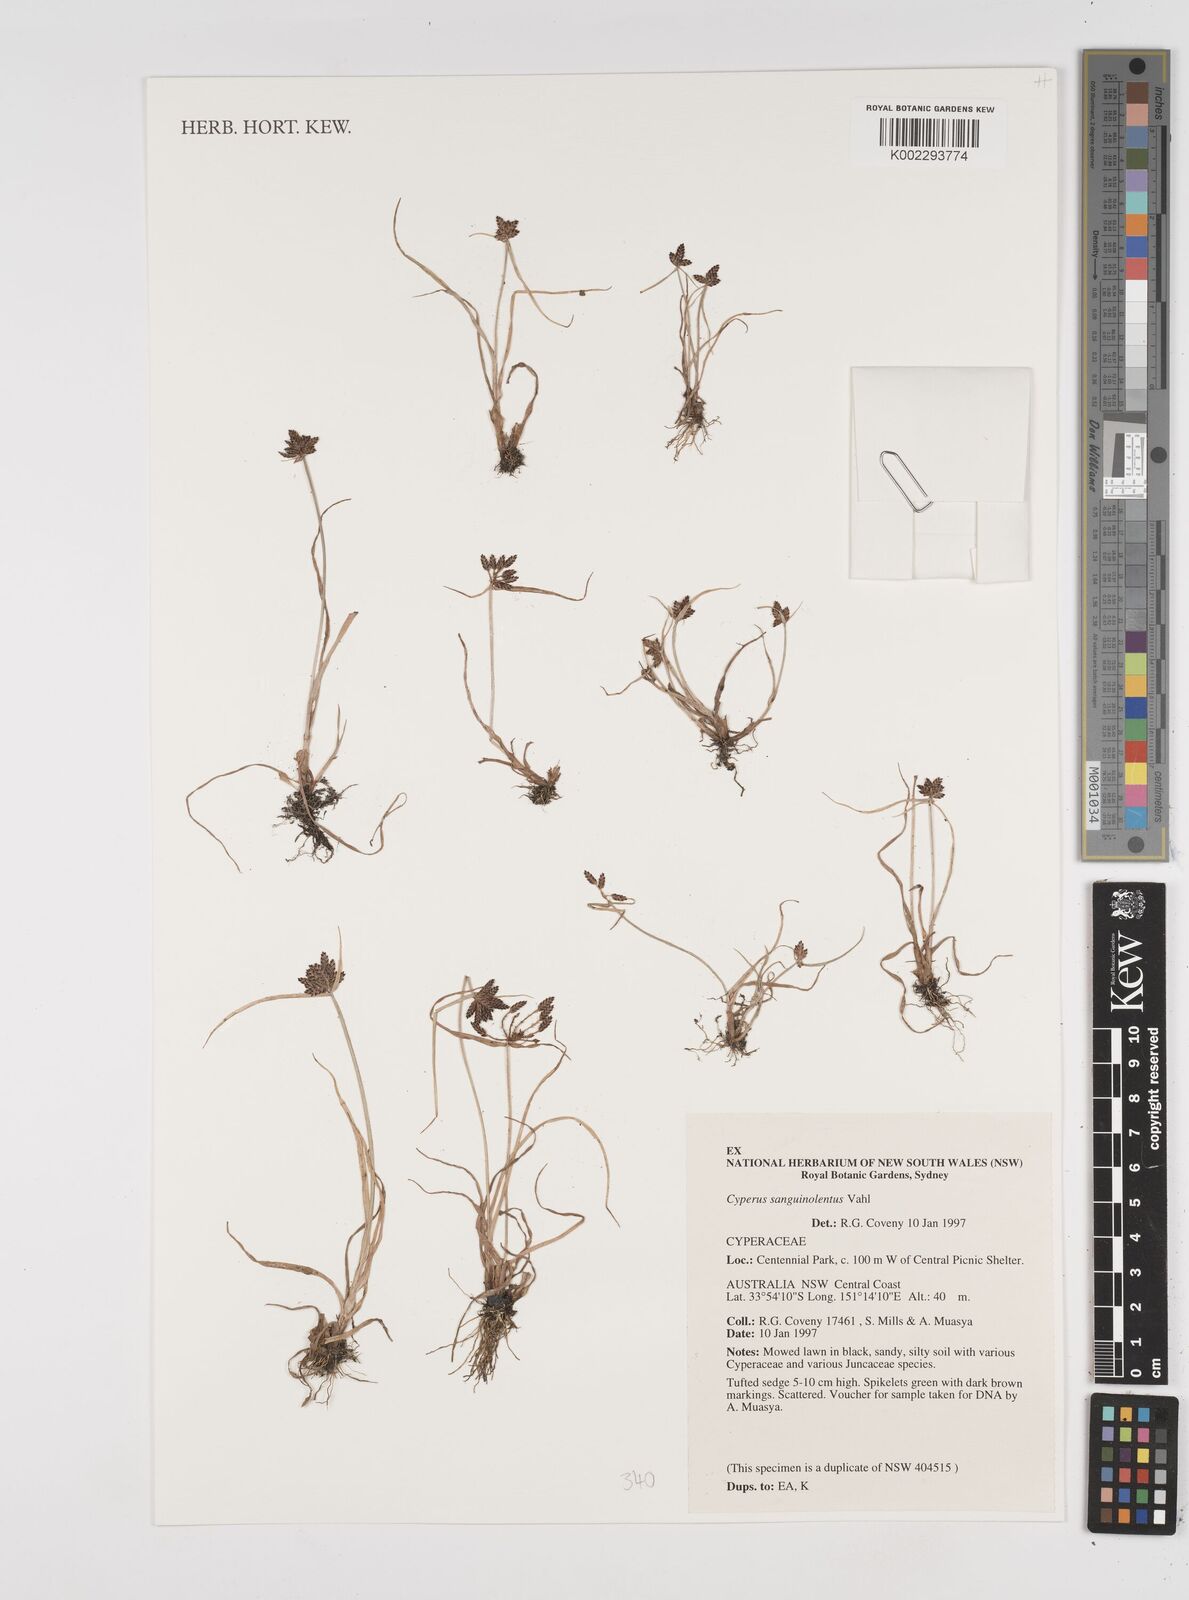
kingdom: Plantae
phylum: Tracheophyta
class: Liliopsida
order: Poales
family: Cyperaceae
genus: Cyperus
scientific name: Cyperus sanguinolentus
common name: Purpleglume flatsedge
